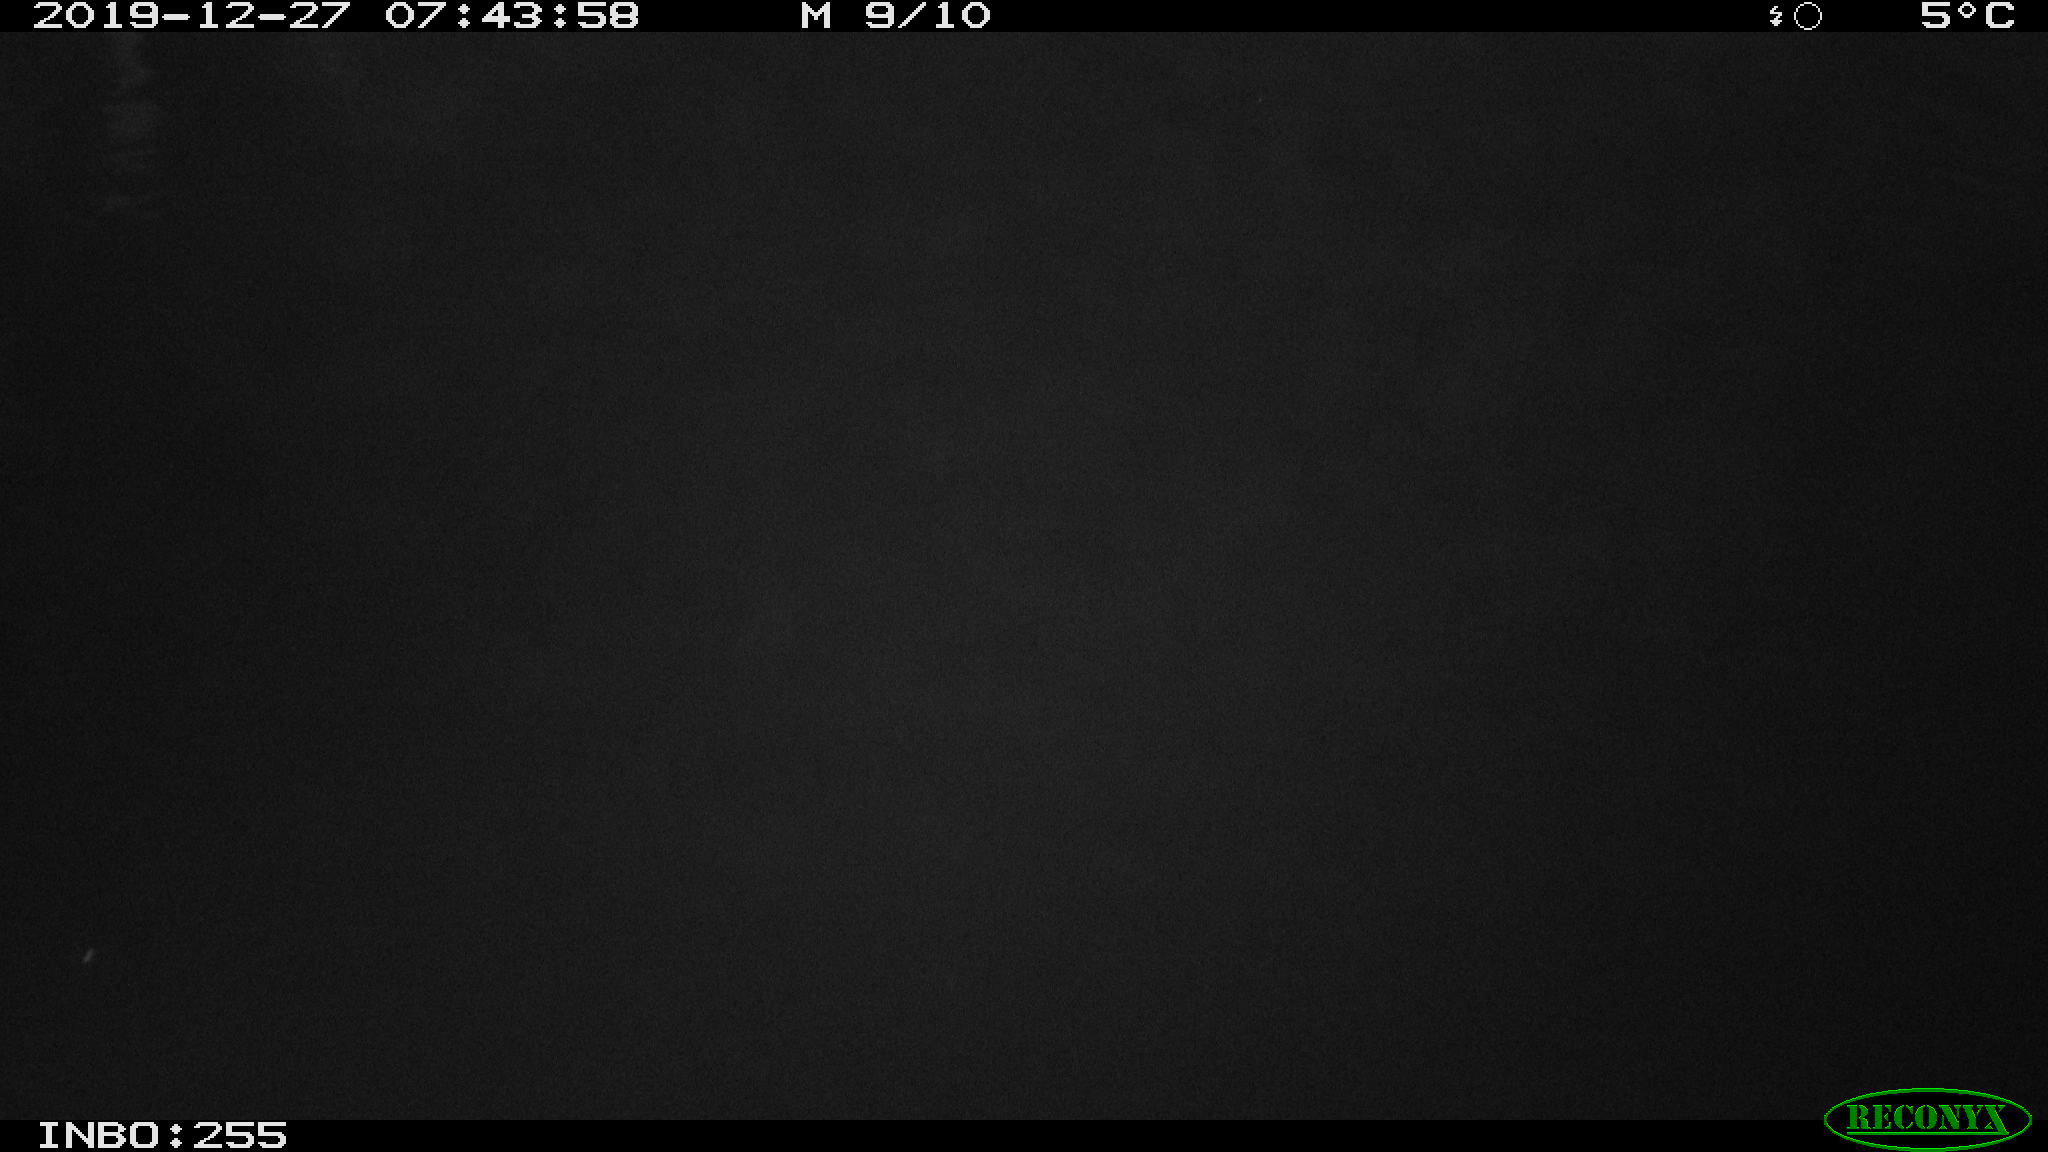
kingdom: Animalia
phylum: Chordata
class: Aves
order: Gruiformes
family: Rallidae
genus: Fulica
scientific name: Fulica atra
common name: Eurasian coot
